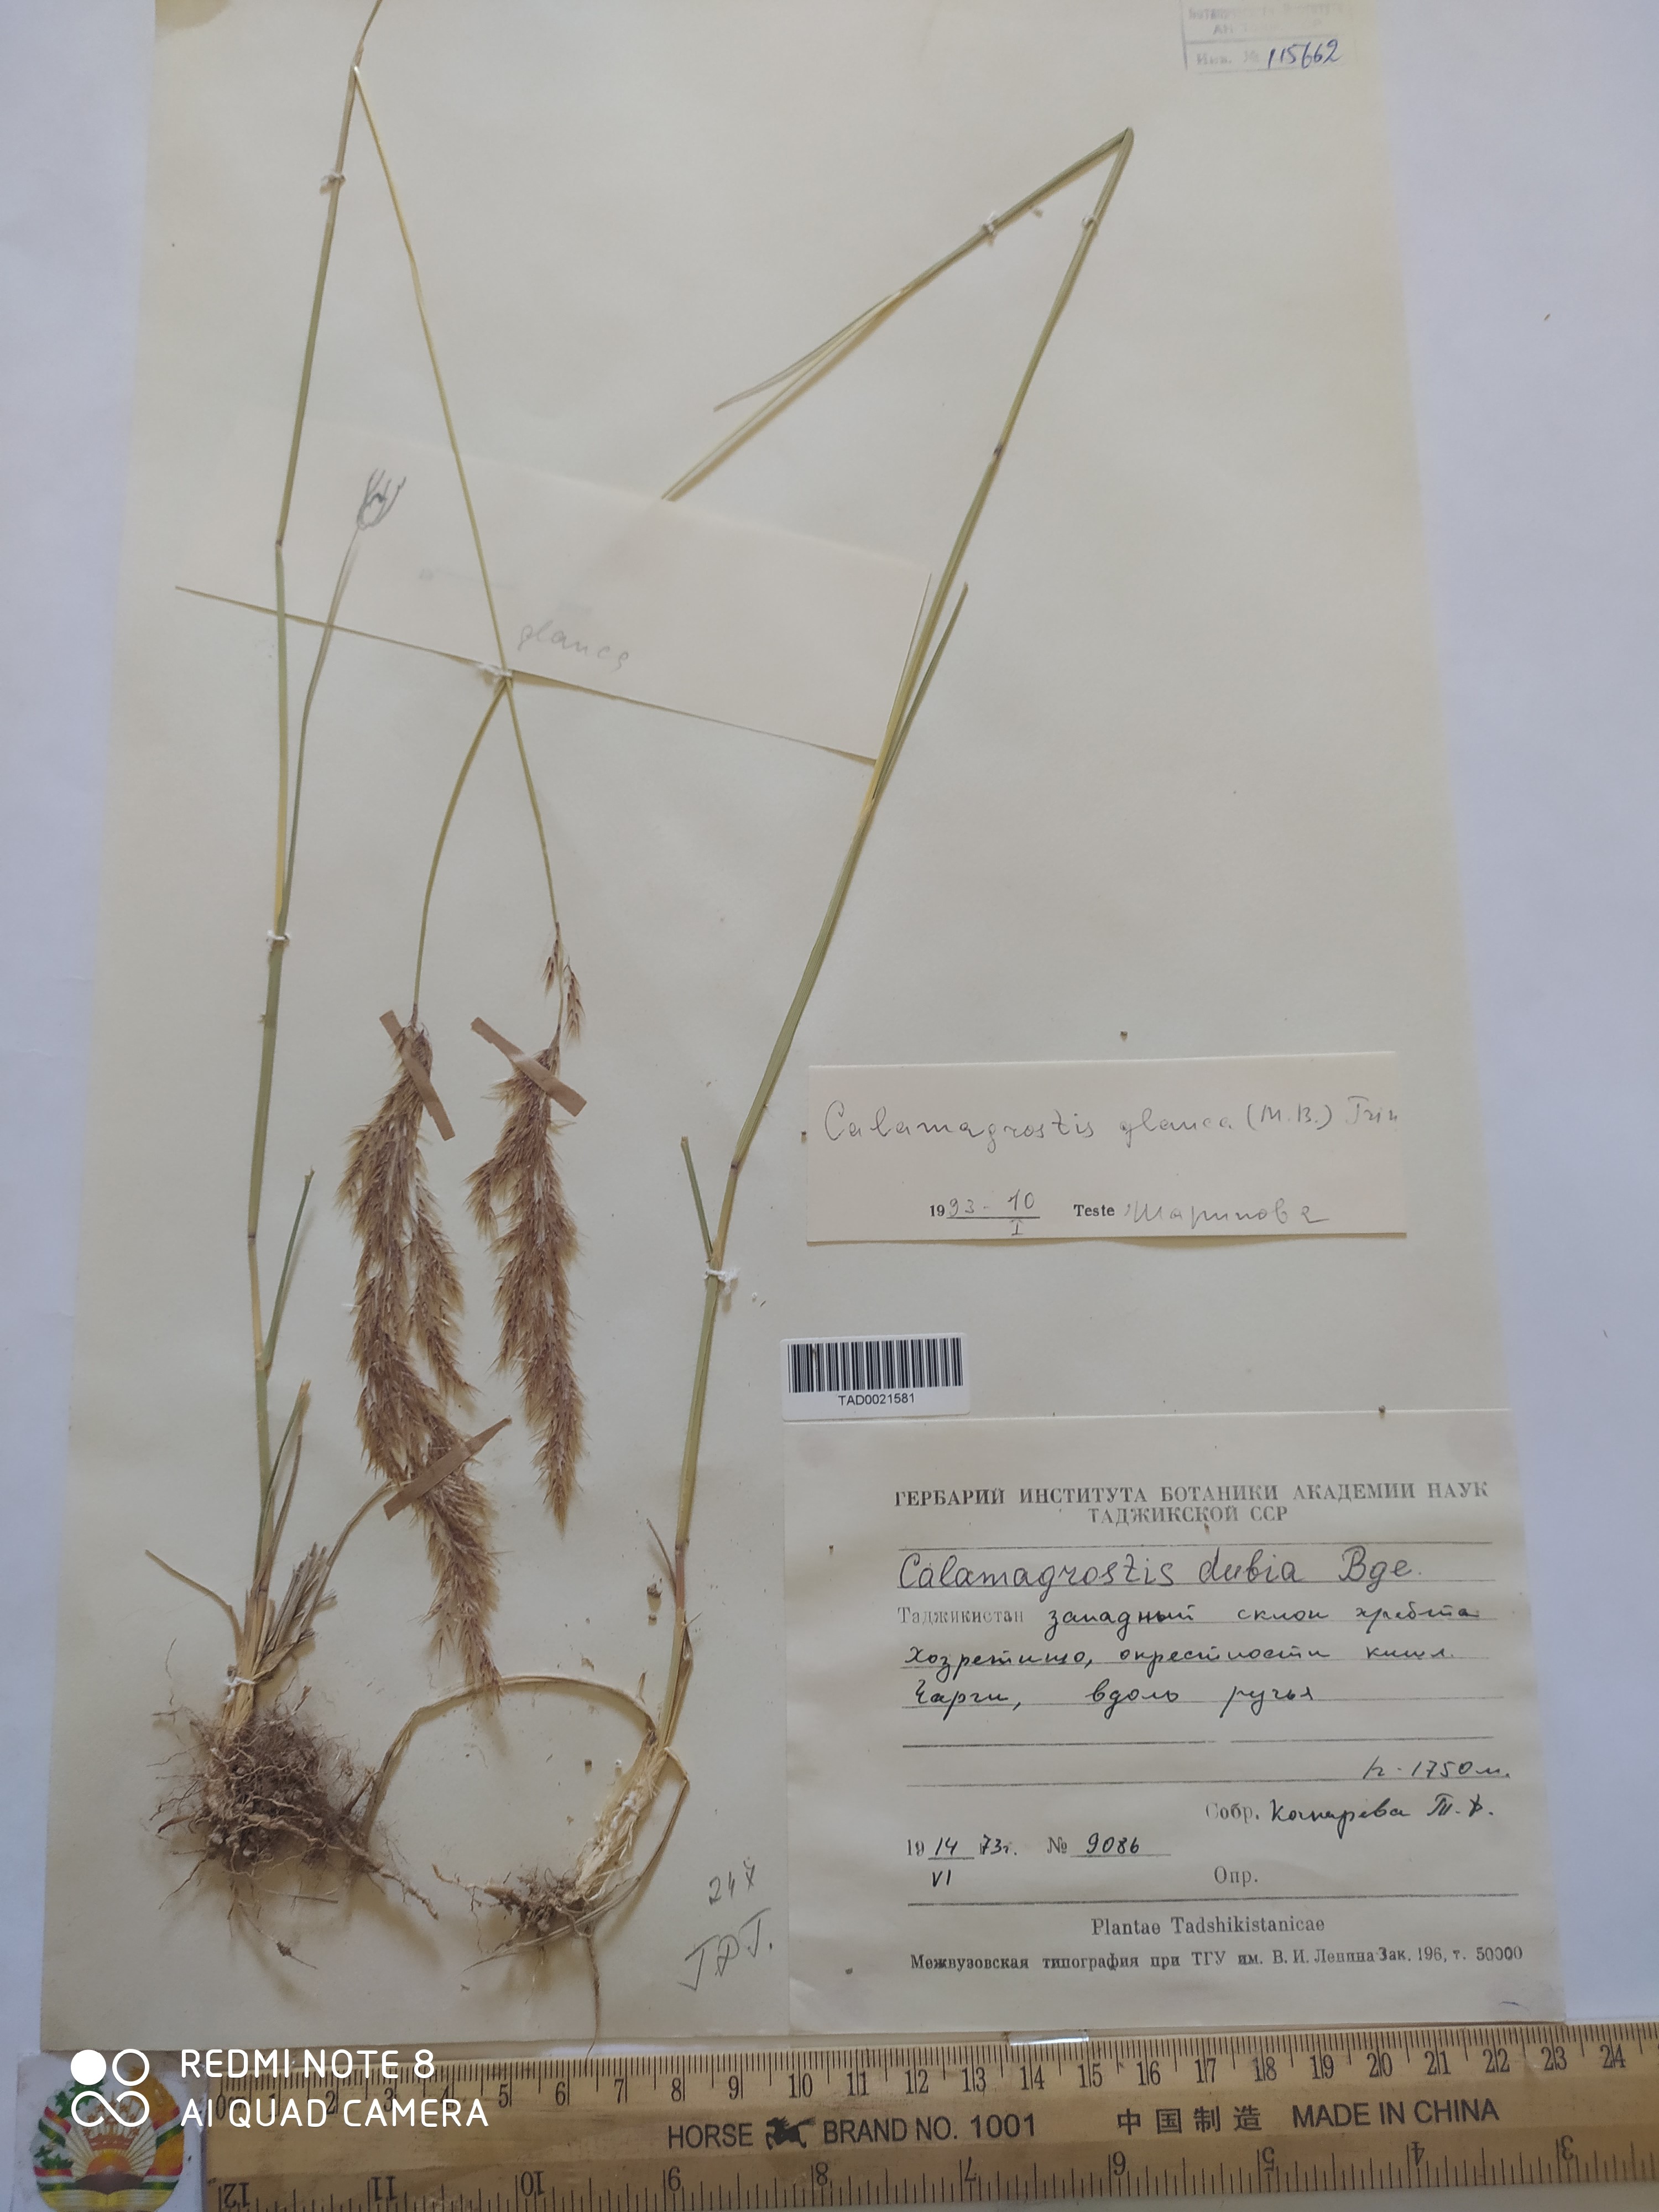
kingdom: Plantae
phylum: Tracheophyta
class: Liliopsida
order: Poales
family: Poaceae
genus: Calamagrostis
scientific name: Calamagrostis pseudophragmites
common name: Coastal small-reed
